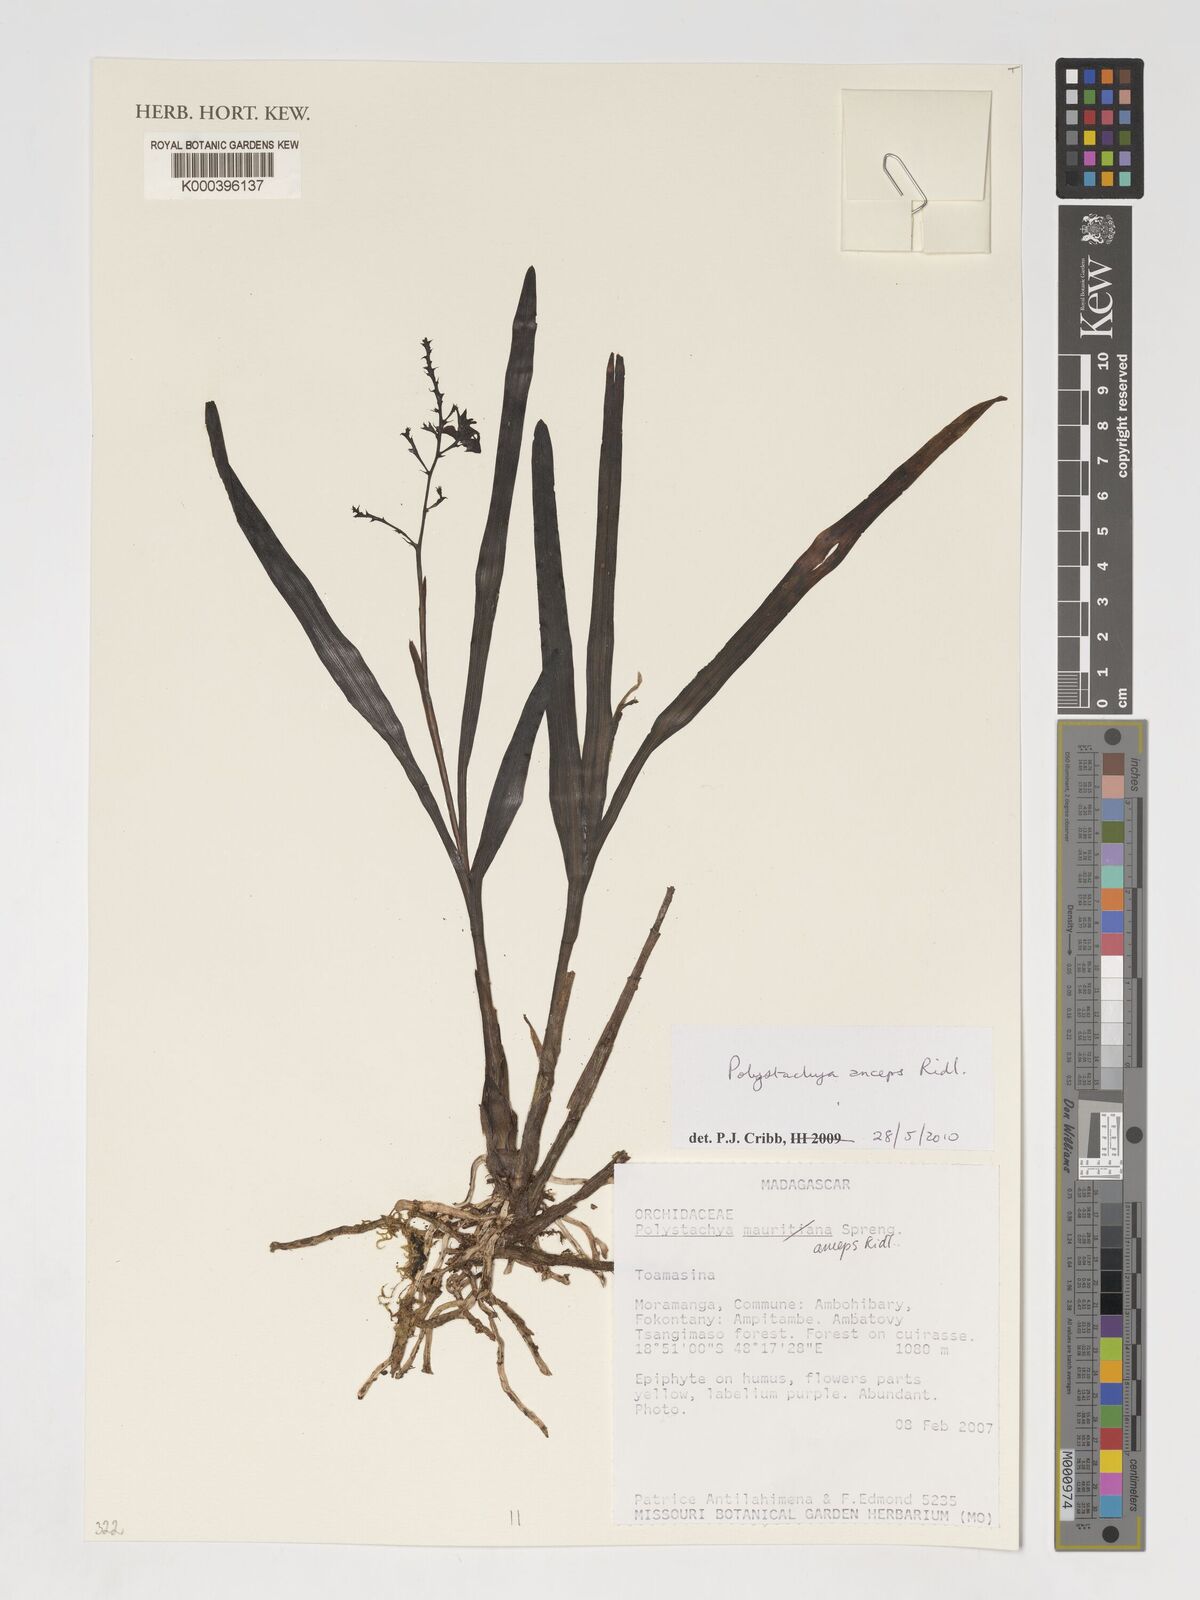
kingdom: Plantae
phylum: Tracheophyta
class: Liliopsida
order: Asparagales
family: Orchidaceae
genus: Polystachya
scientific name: Polystachya anceps
